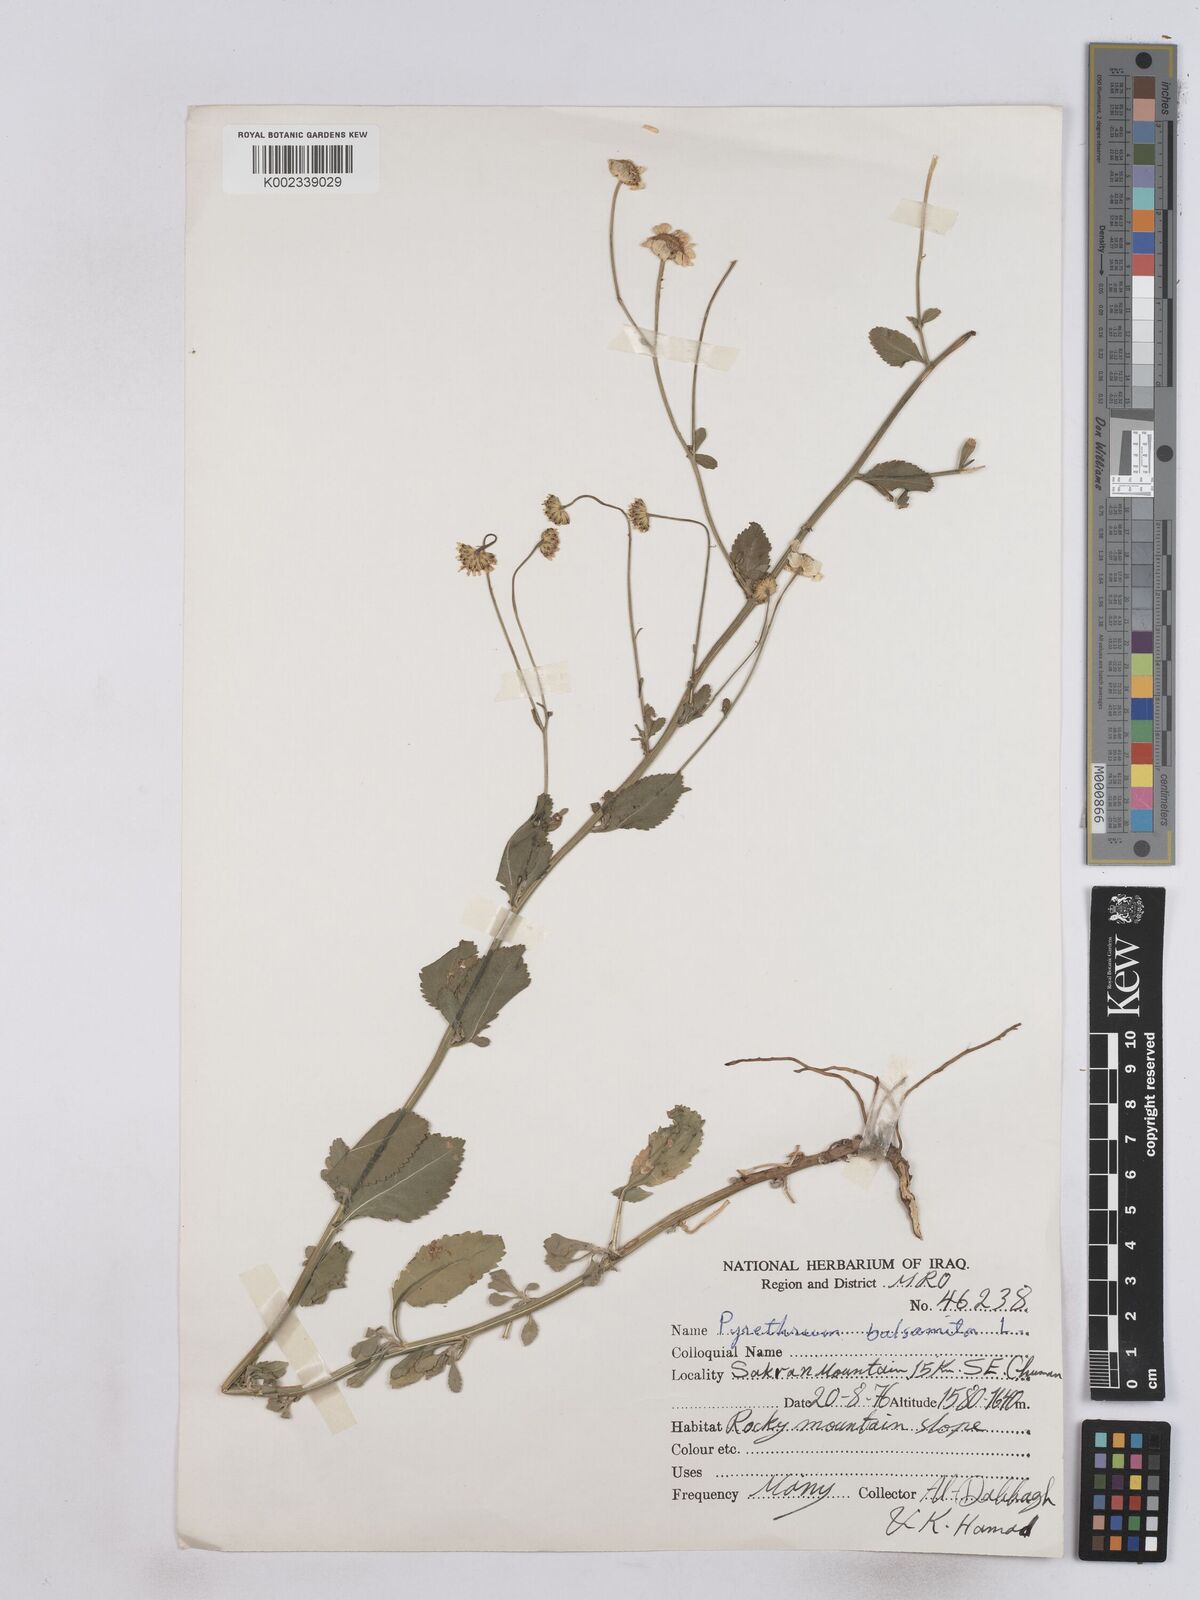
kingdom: Plantae
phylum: Tracheophyta
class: Magnoliopsida
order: Asterales
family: Asteraceae
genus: Tanacetum
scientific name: Tanacetum balsamitoides
